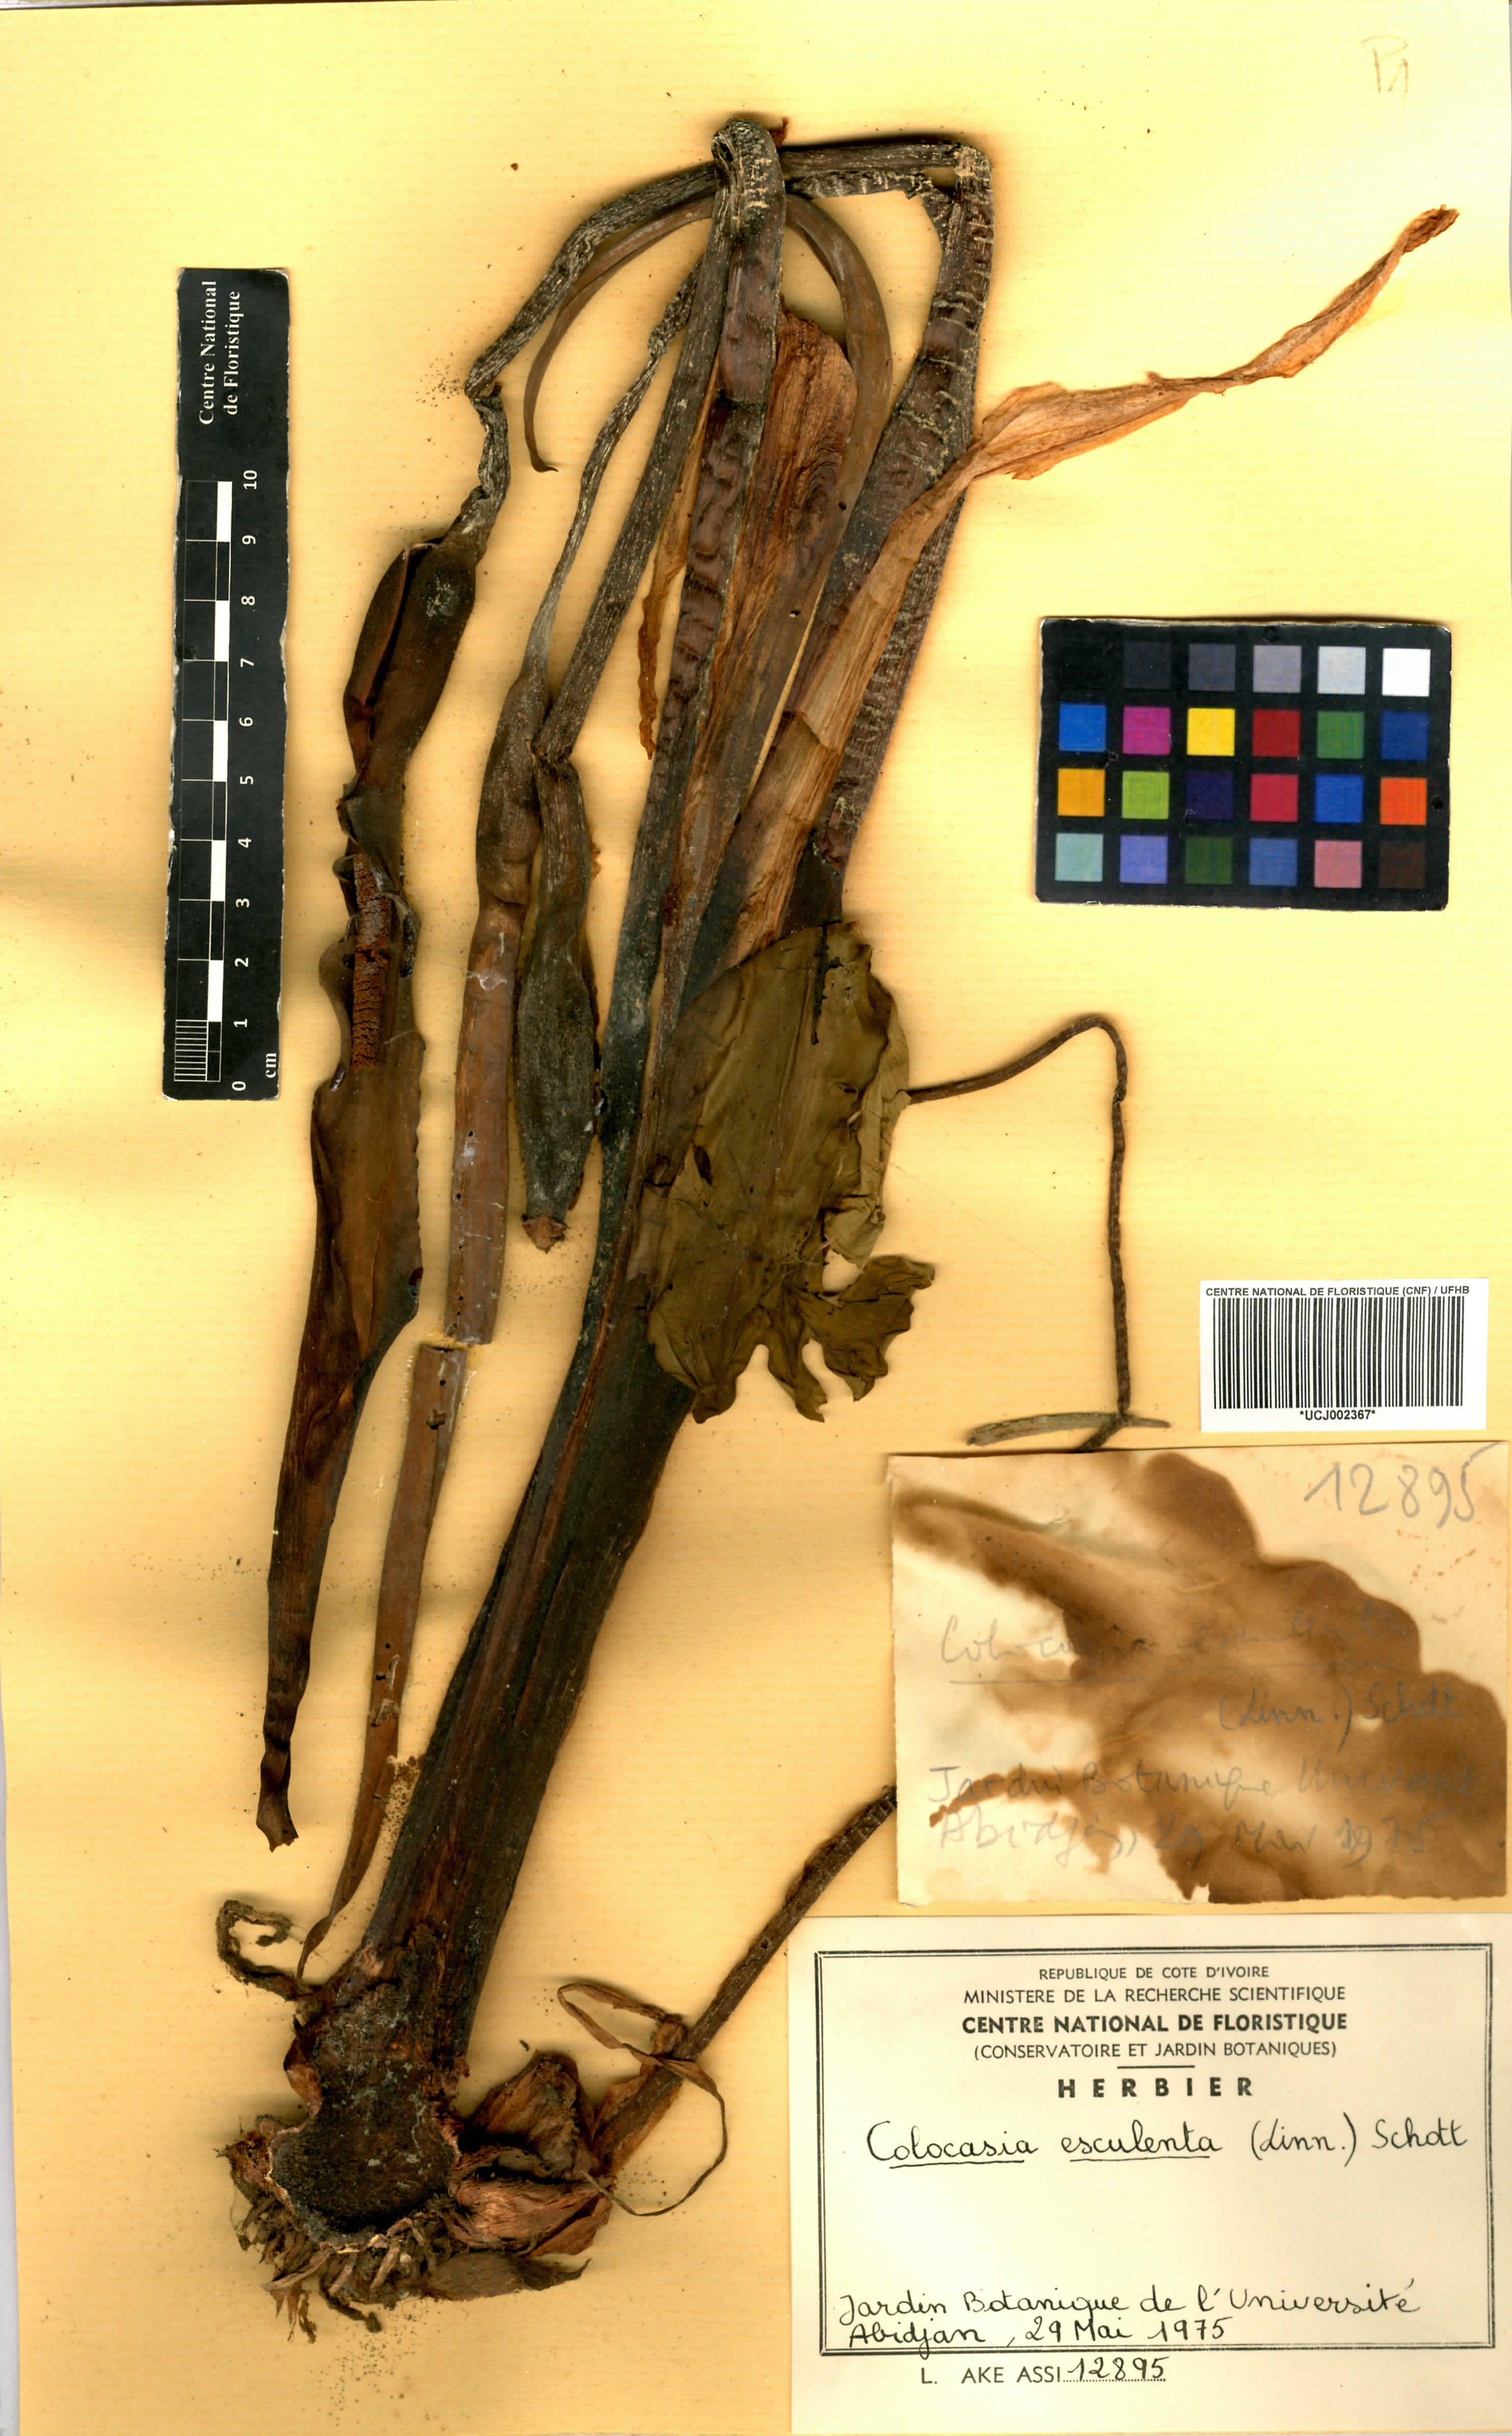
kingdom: Plantae
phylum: Tracheophyta
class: Liliopsida
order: Alismatales
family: Araceae
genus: Colocasia
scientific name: Colocasia esculenta
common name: Taro
